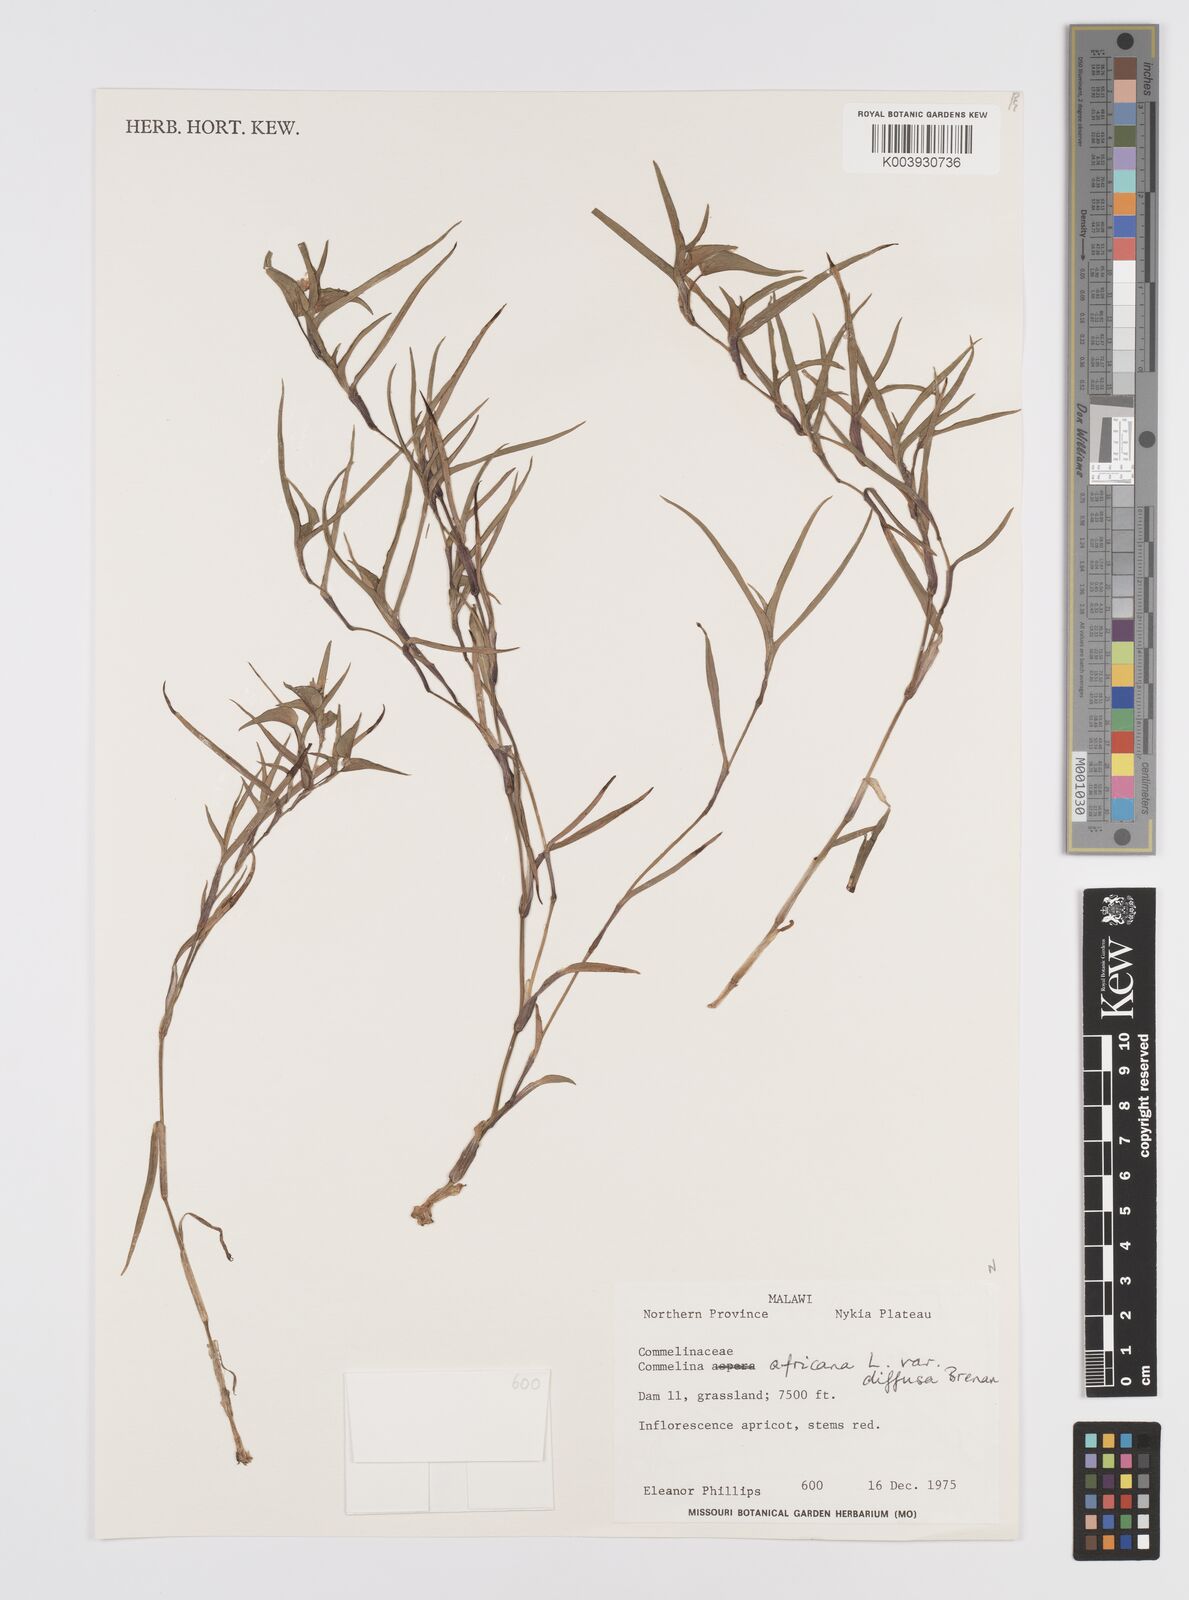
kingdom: Plantae
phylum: Tracheophyta
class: Liliopsida
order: Commelinales
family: Commelinaceae
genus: Commelina
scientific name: Commelina africana
